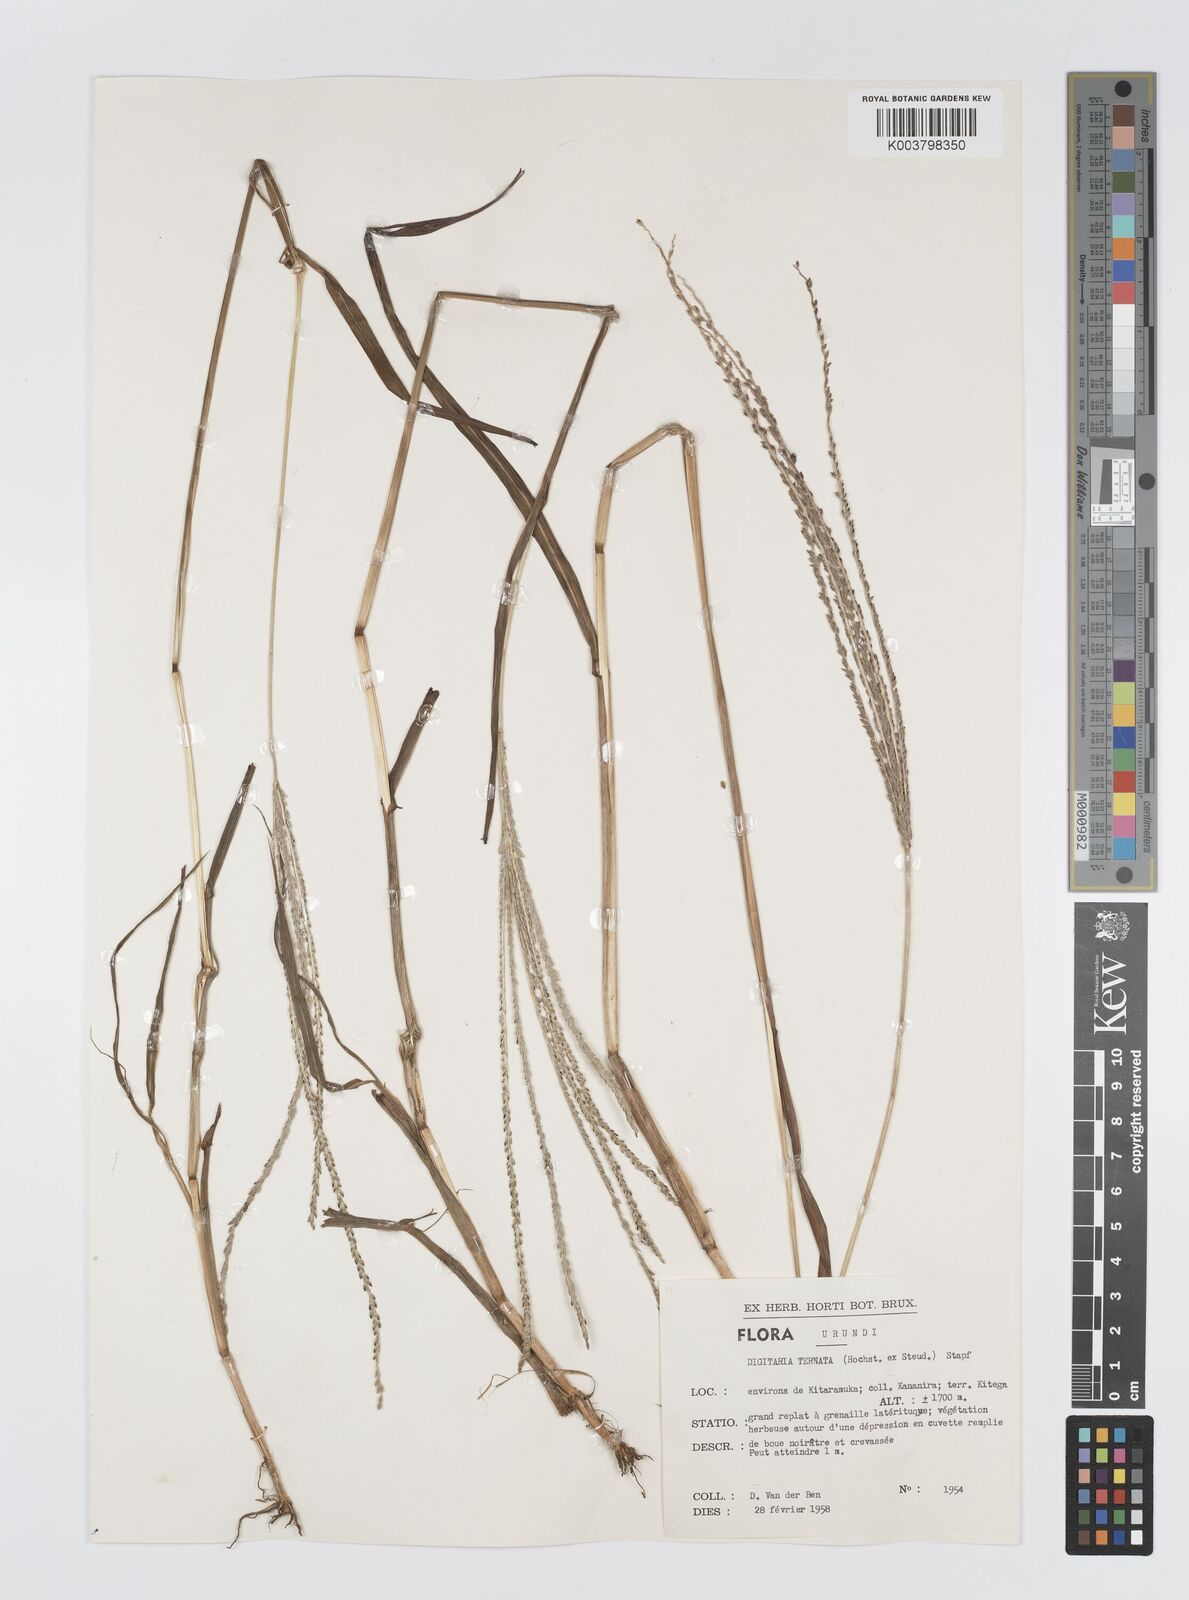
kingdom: Plantae
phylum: Tracheophyta
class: Liliopsida
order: Poales
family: Poaceae
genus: Digitaria
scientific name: Digitaria ternata
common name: Blackseed crabgrass
